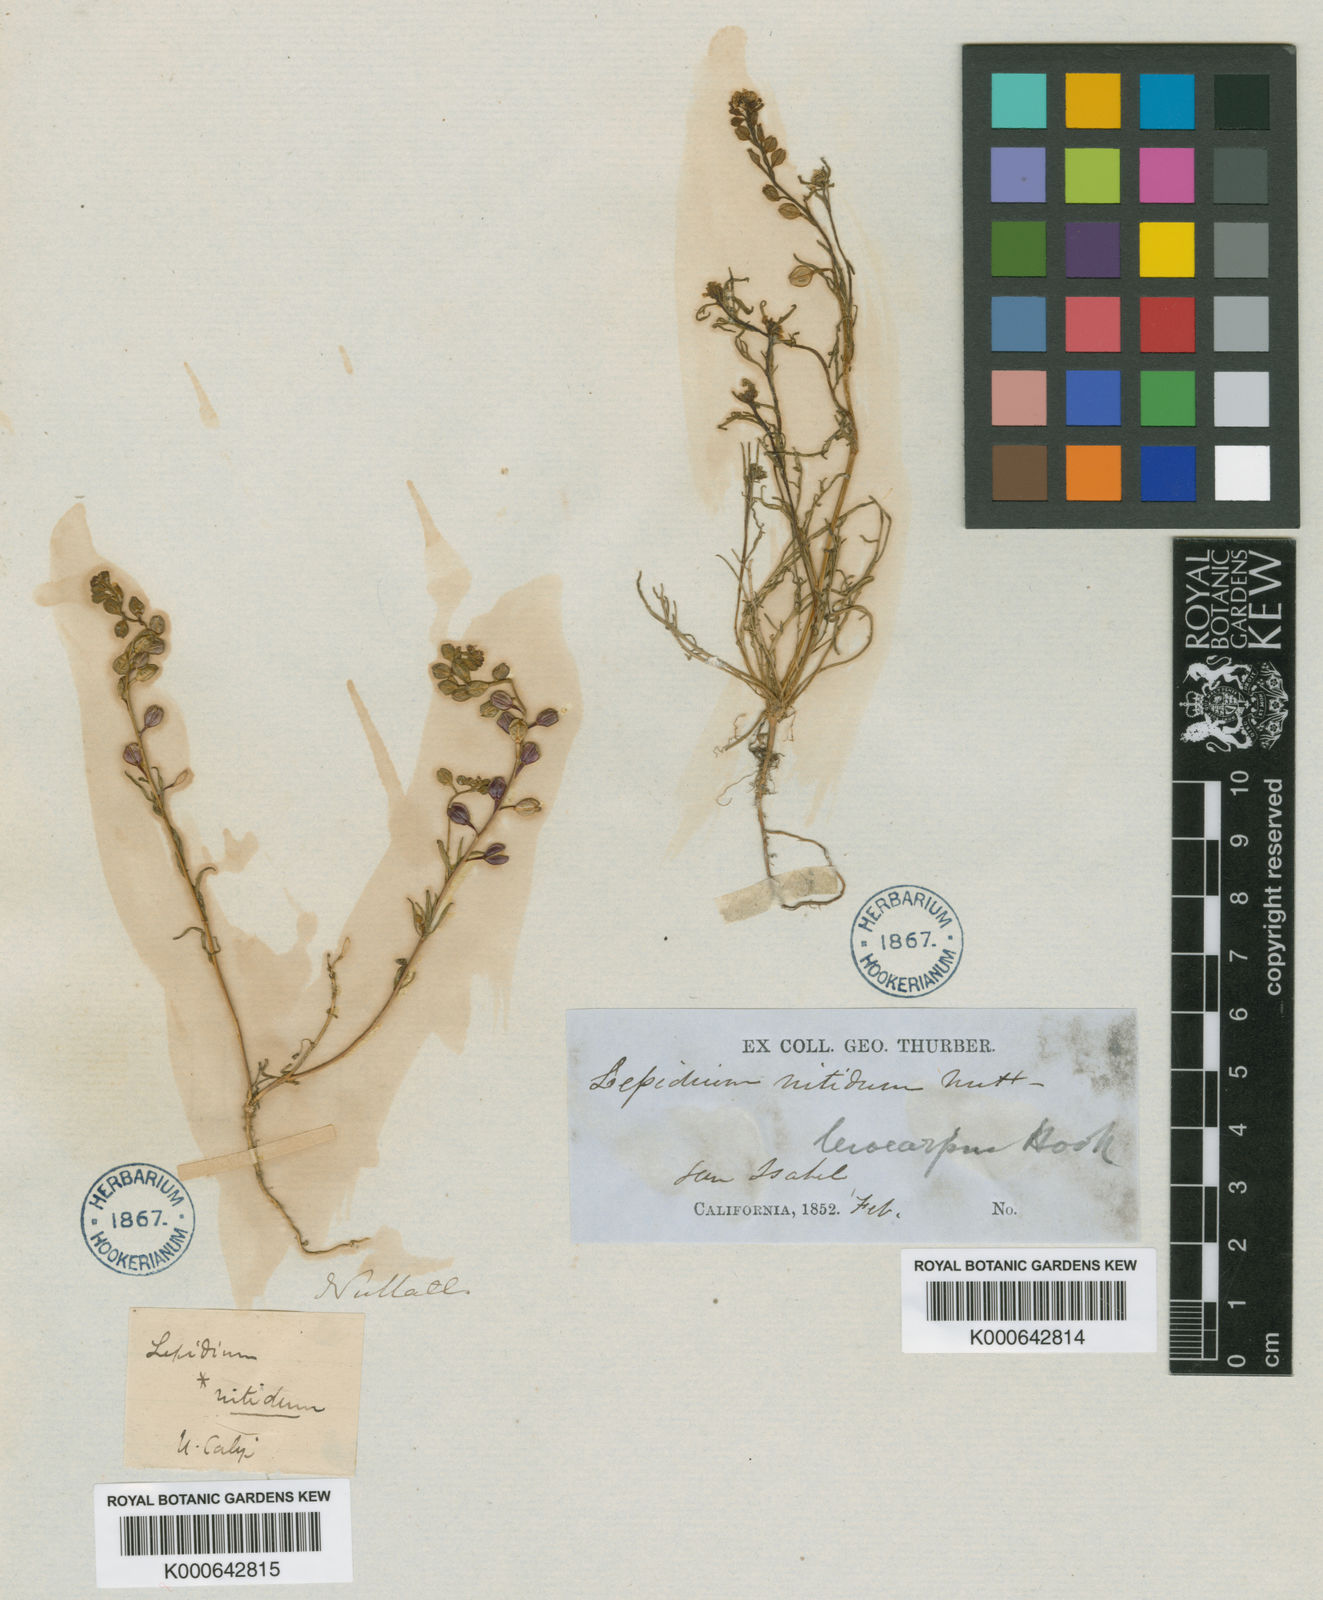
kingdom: Plantae
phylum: Tracheophyta
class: Magnoliopsida
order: Brassicales
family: Brassicaceae
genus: Lepidium
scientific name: Lepidium nitidum
